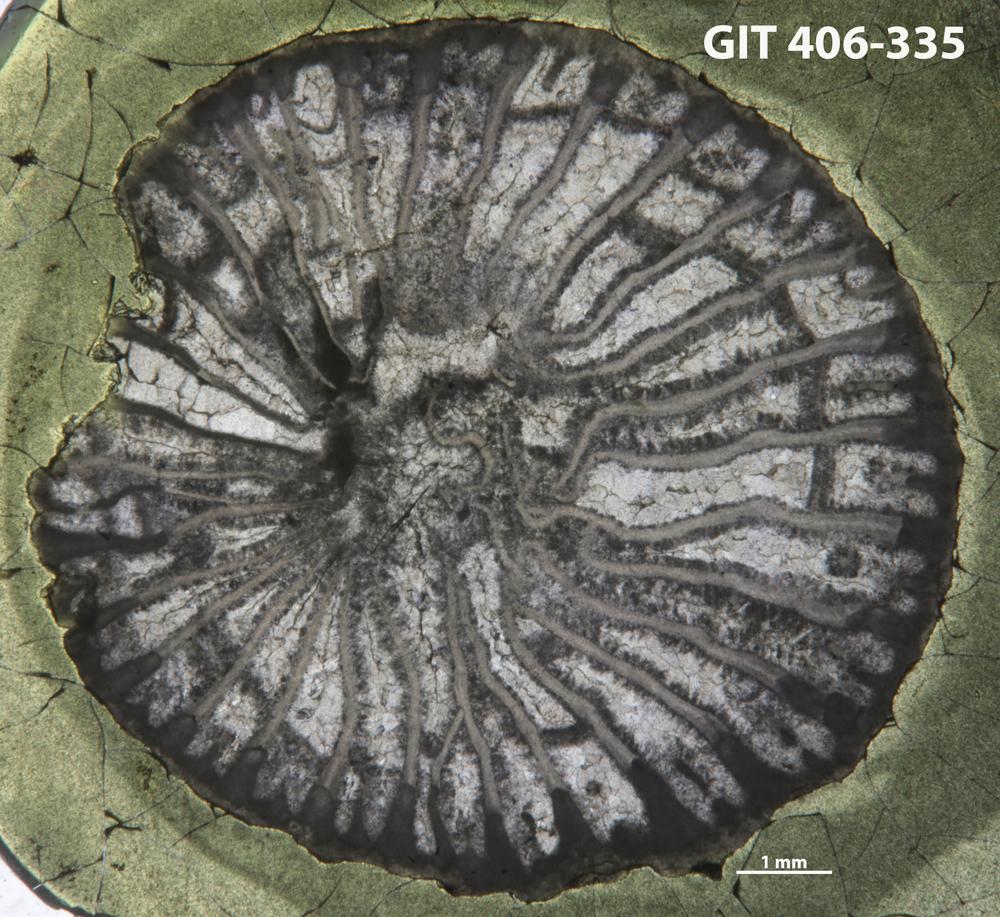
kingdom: Animalia
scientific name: Animalia
